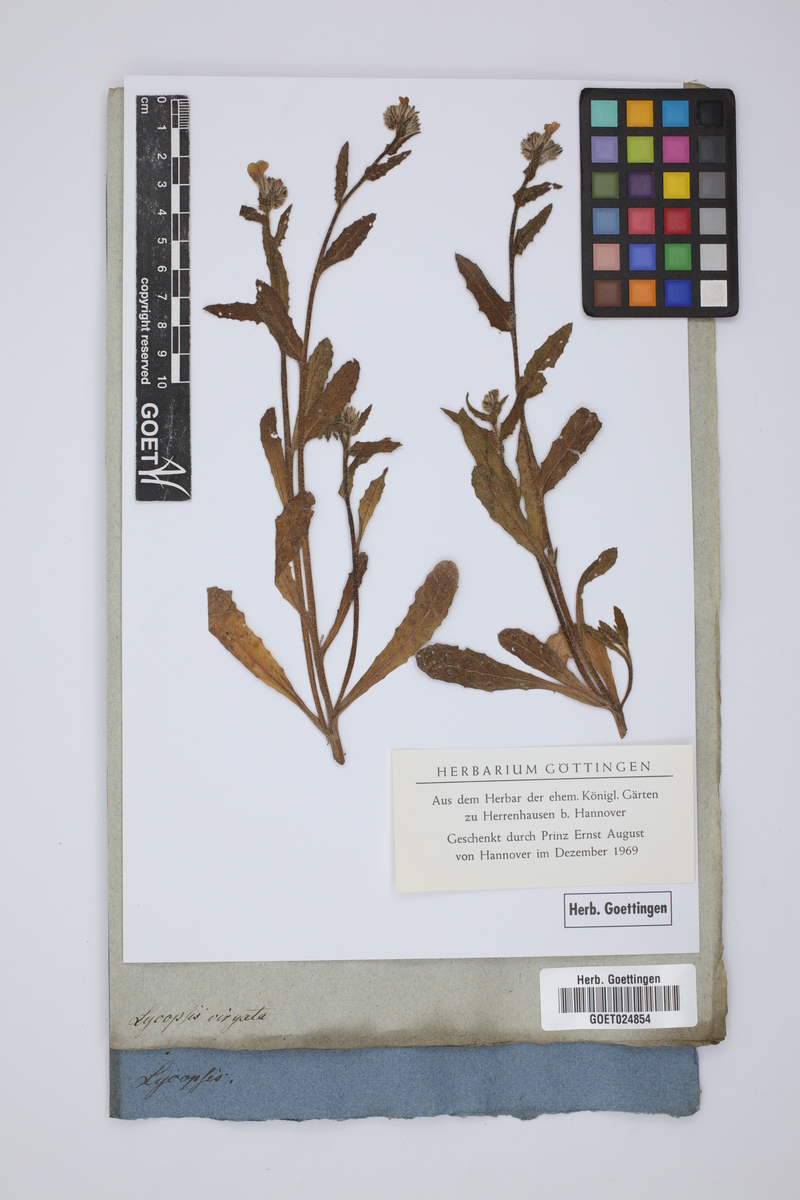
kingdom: Plantae
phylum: Tracheophyta
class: Magnoliopsida
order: Boraginales
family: Boraginaceae
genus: Lycopsis
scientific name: Lycopsis
